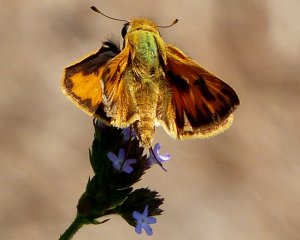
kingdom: Animalia
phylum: Arthropoda
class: Insecta
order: Lepidoptera
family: Hesperiidae
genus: Hylephila
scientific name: Hylephila phyleus
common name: Fiery Skipper
